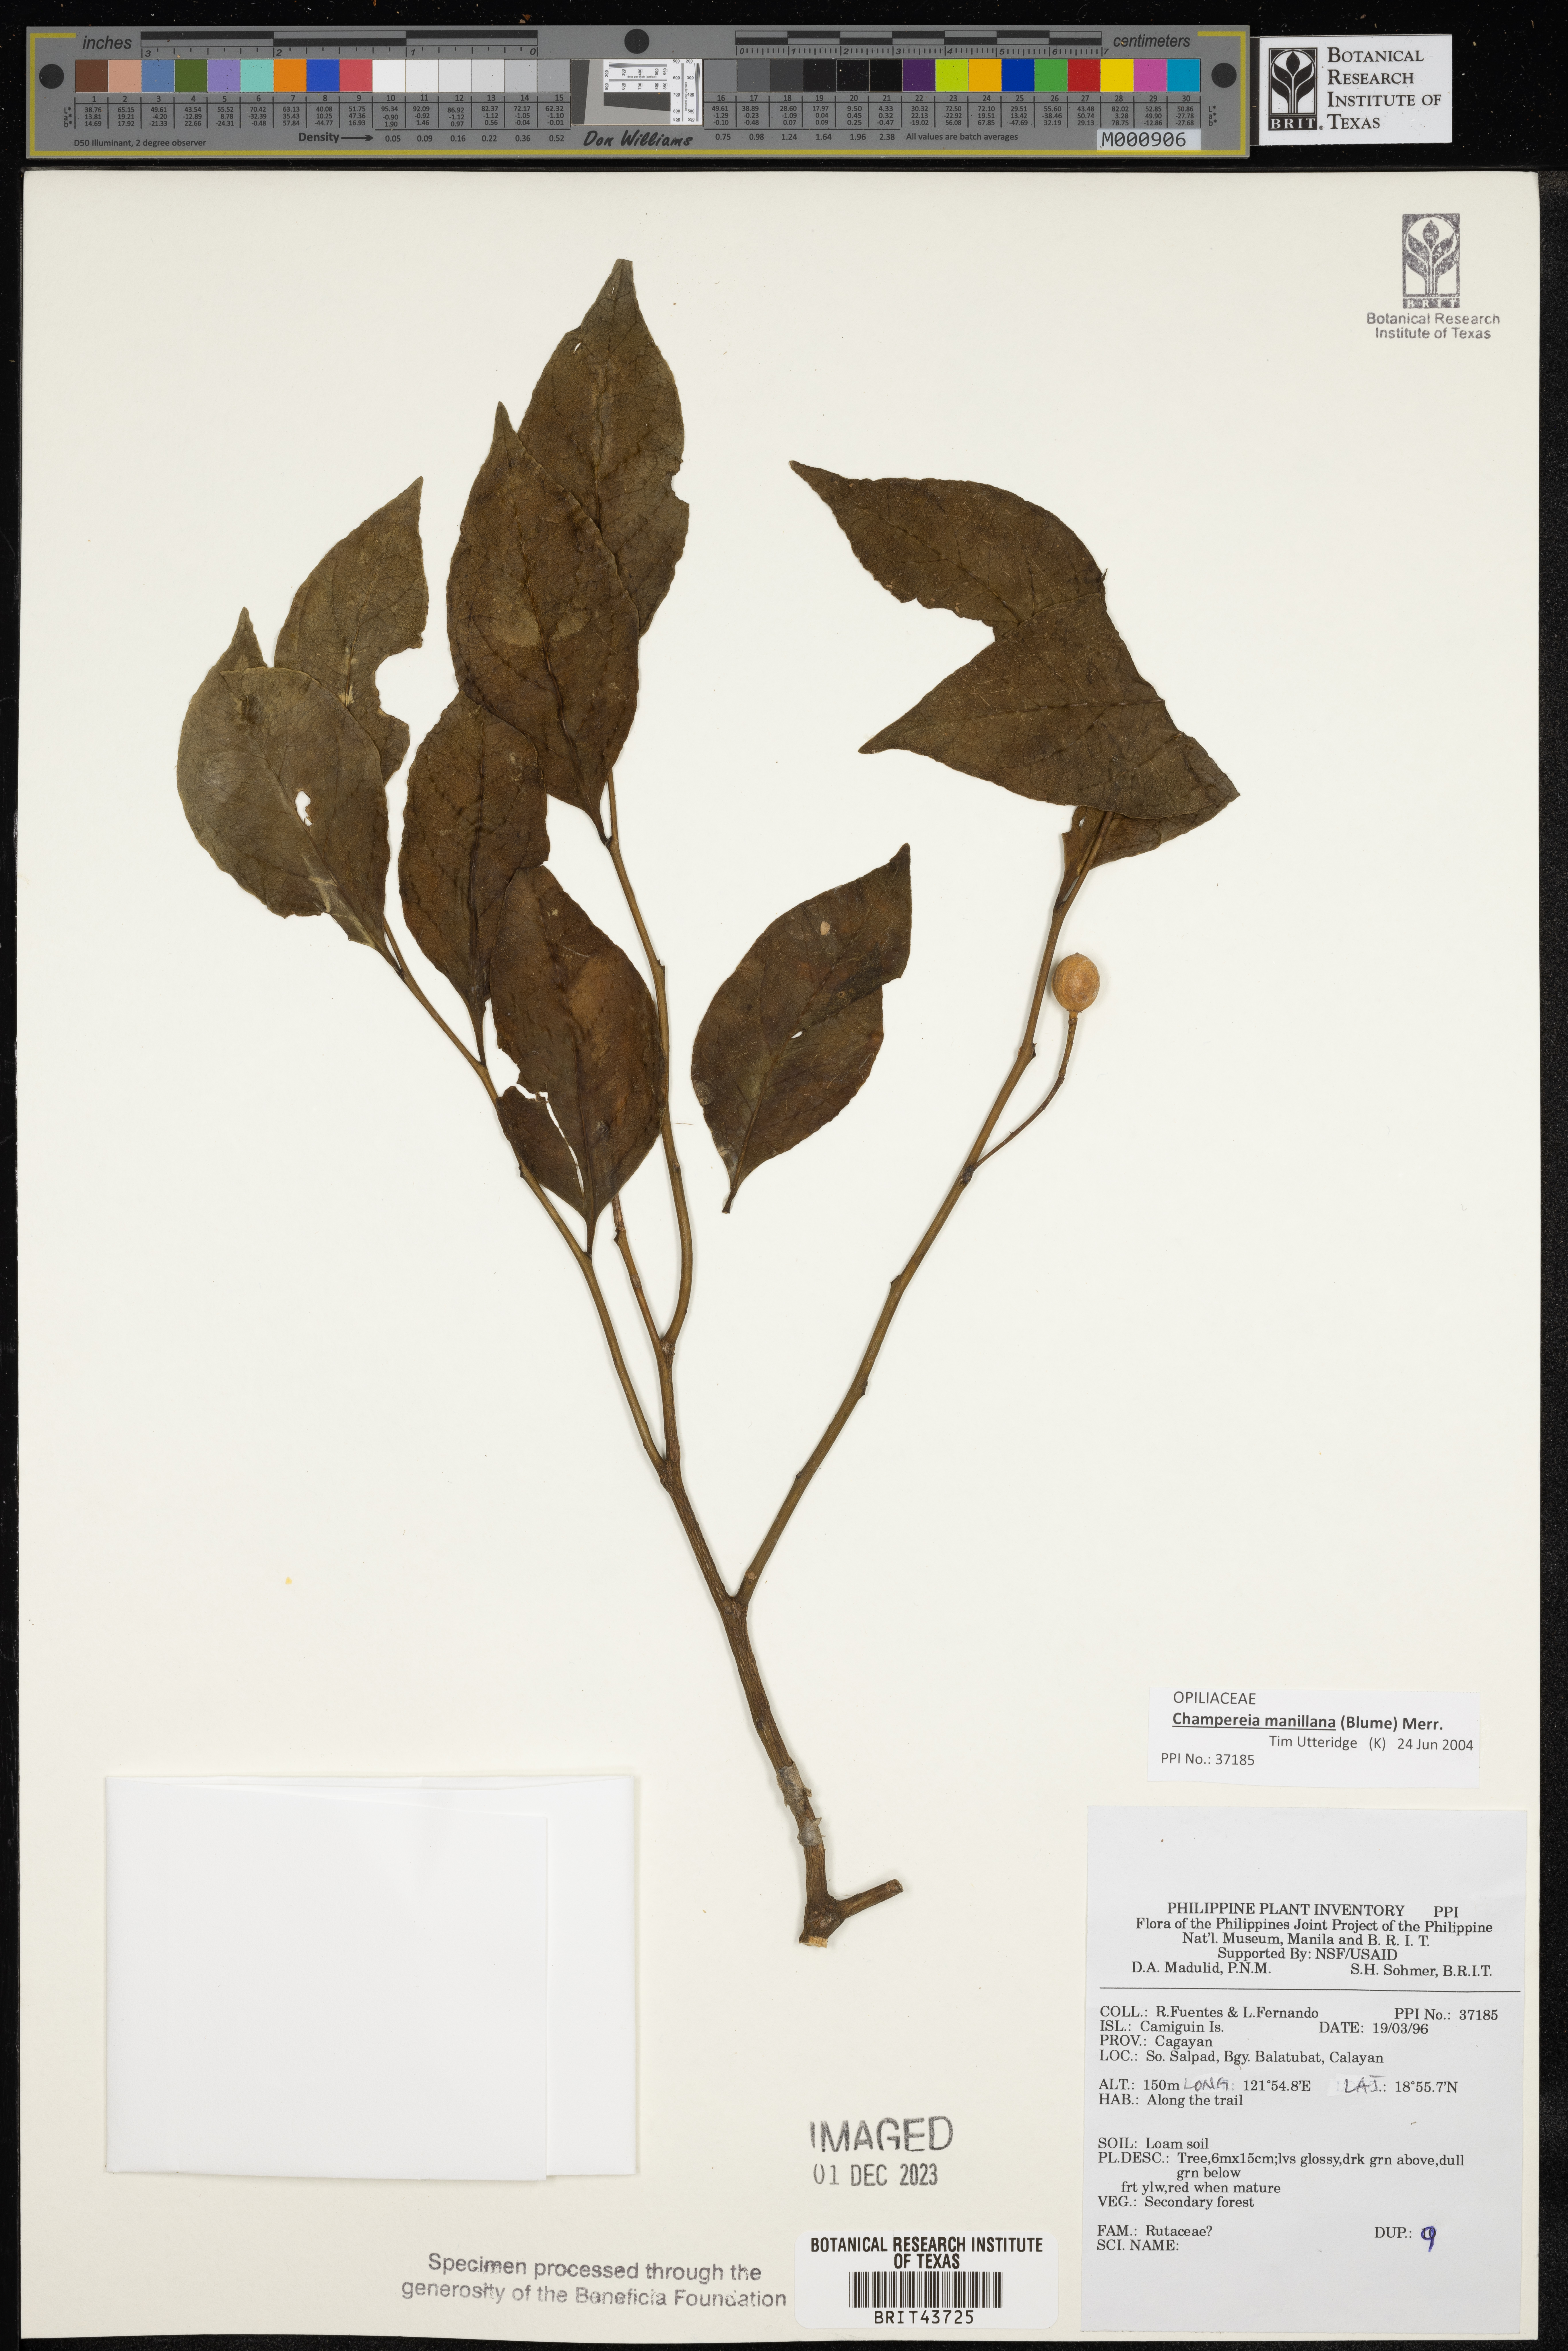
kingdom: Plantae
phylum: Tracheophyta
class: Magnoliopsida
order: Sapindales
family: Rutaceae
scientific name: Rutaceae
